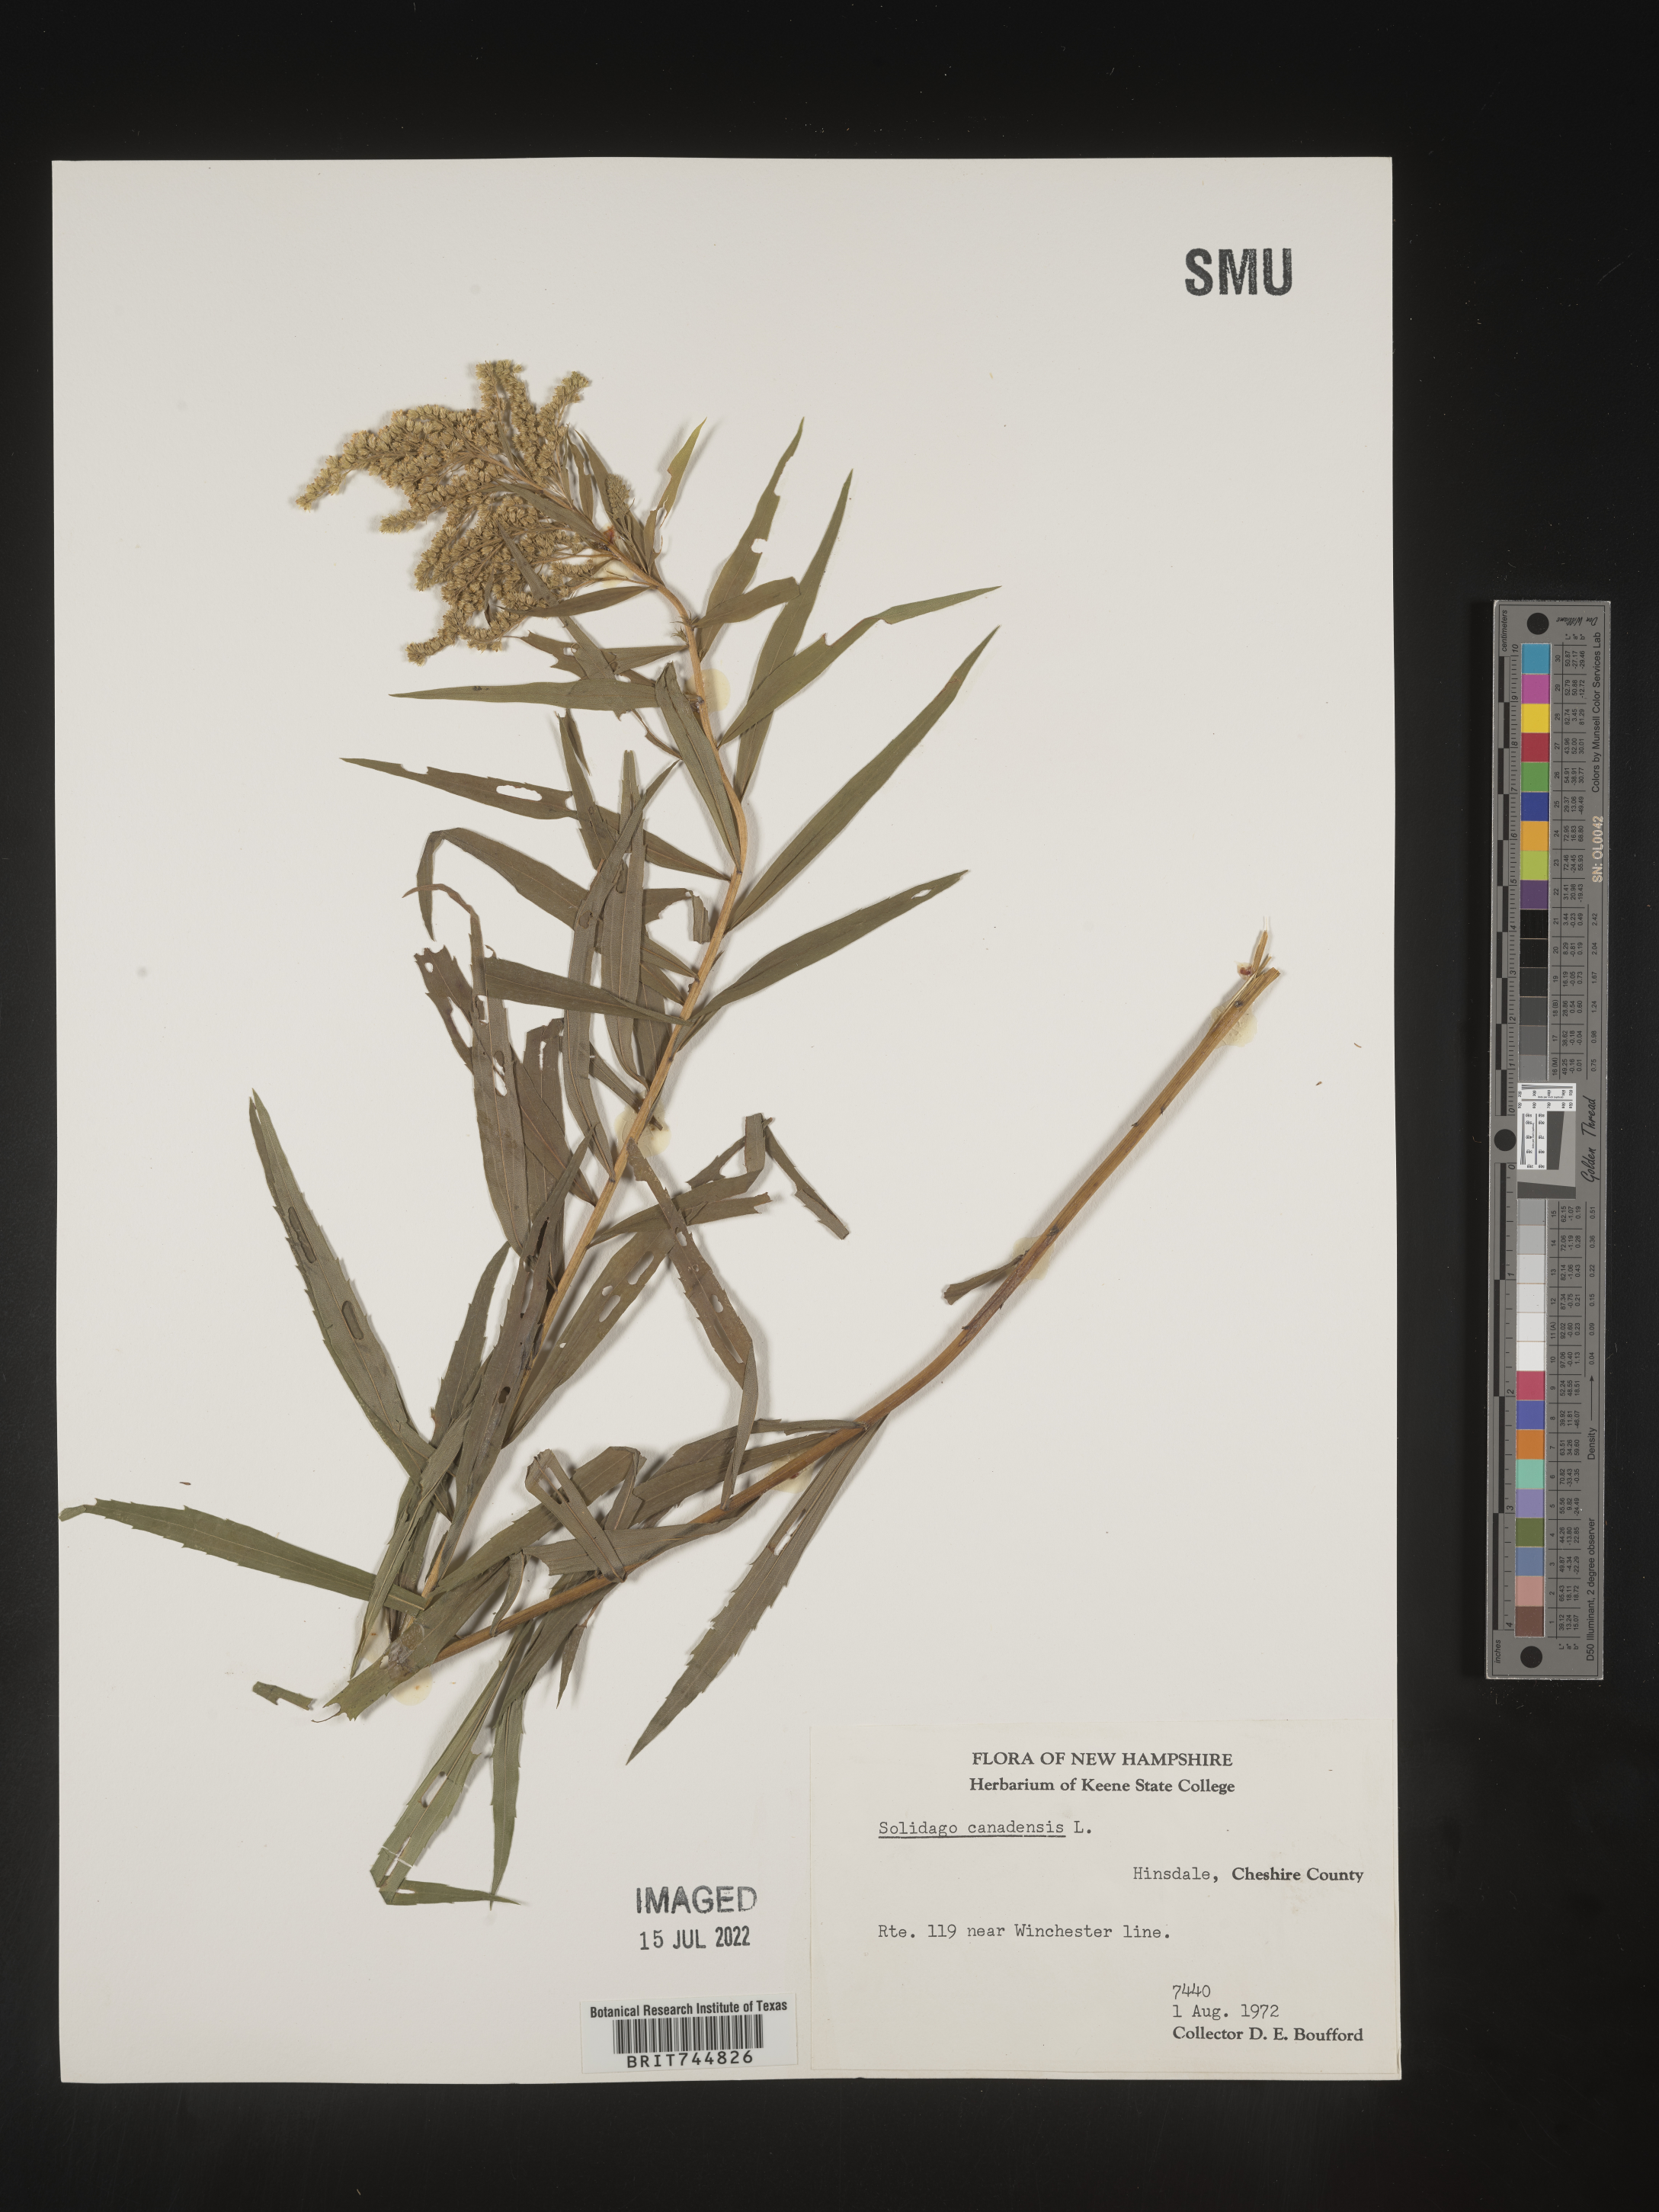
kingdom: Plantae
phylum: Tracheophyta
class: Magnoliopsida
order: Asterales
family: Asteraceae
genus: Solidago
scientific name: Solidago canadensis
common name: Canada goldenrod
